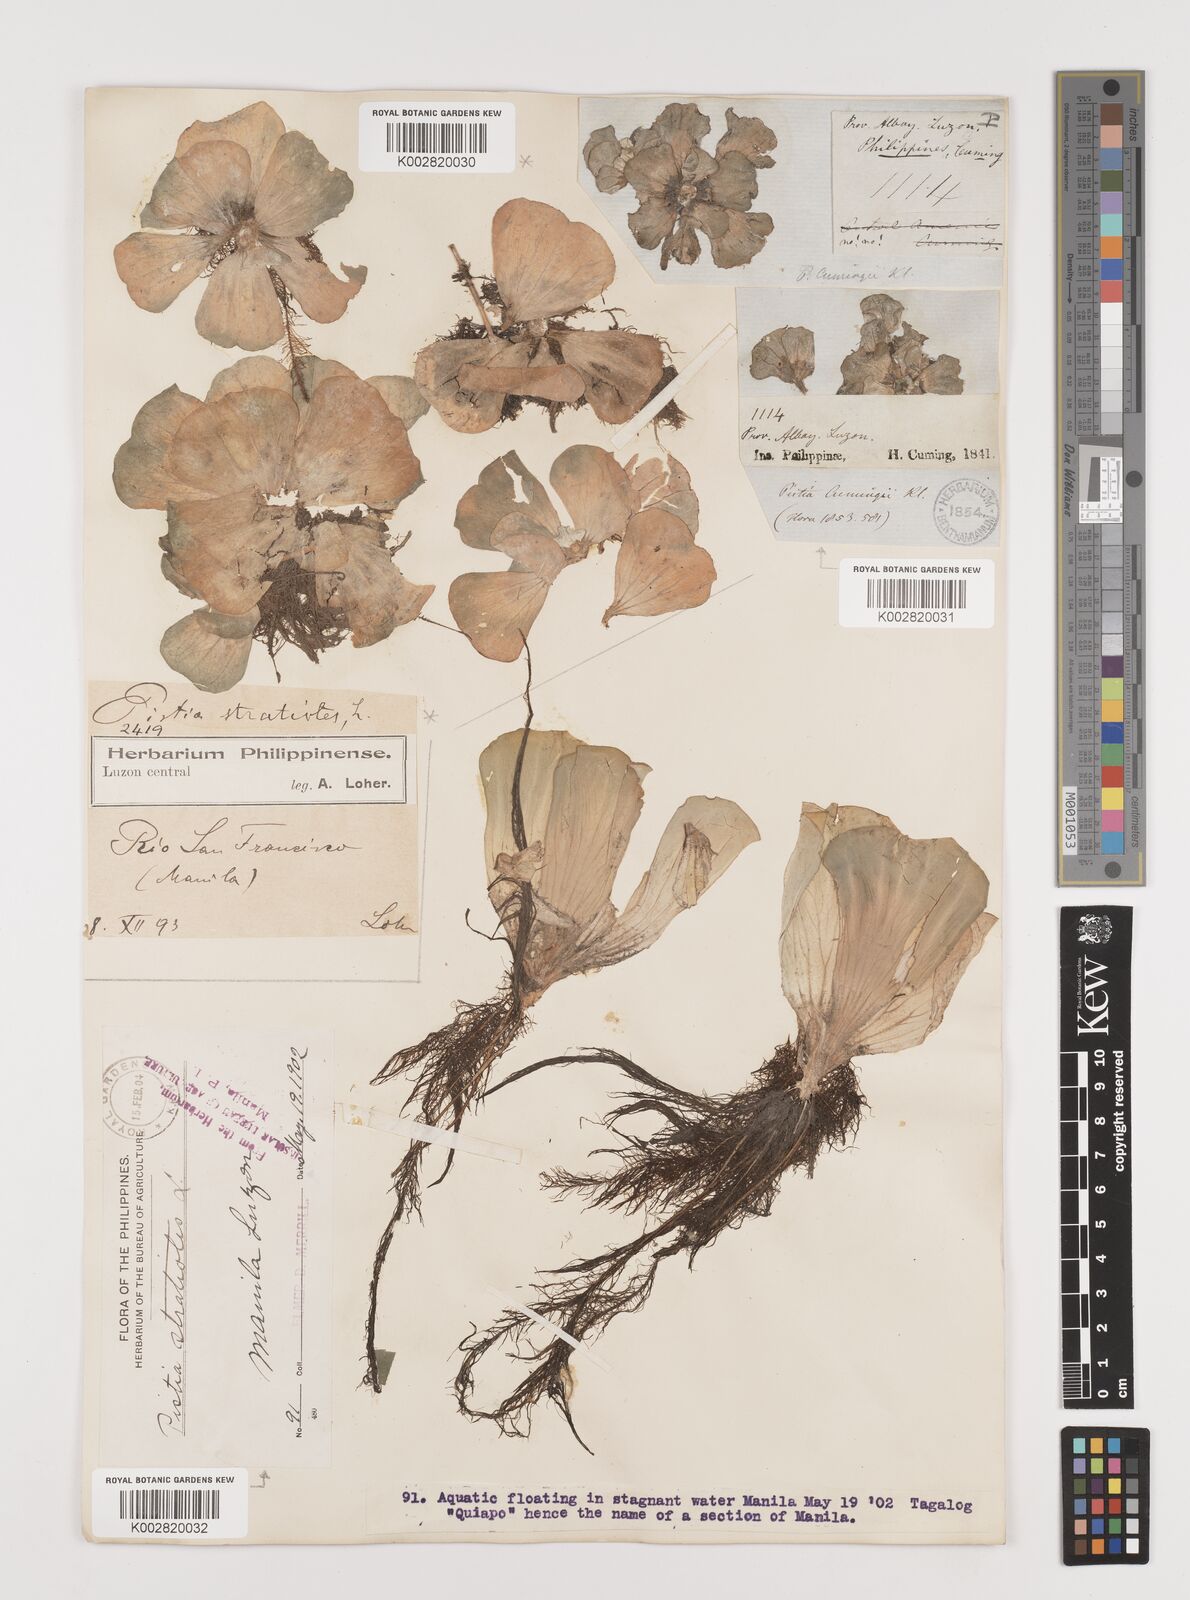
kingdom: Plantae
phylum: Tracheophyta
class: Liliopsida
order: Alismatales
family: Araceae
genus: Pistia
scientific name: Pistia stratiotes
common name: Water lettuce
